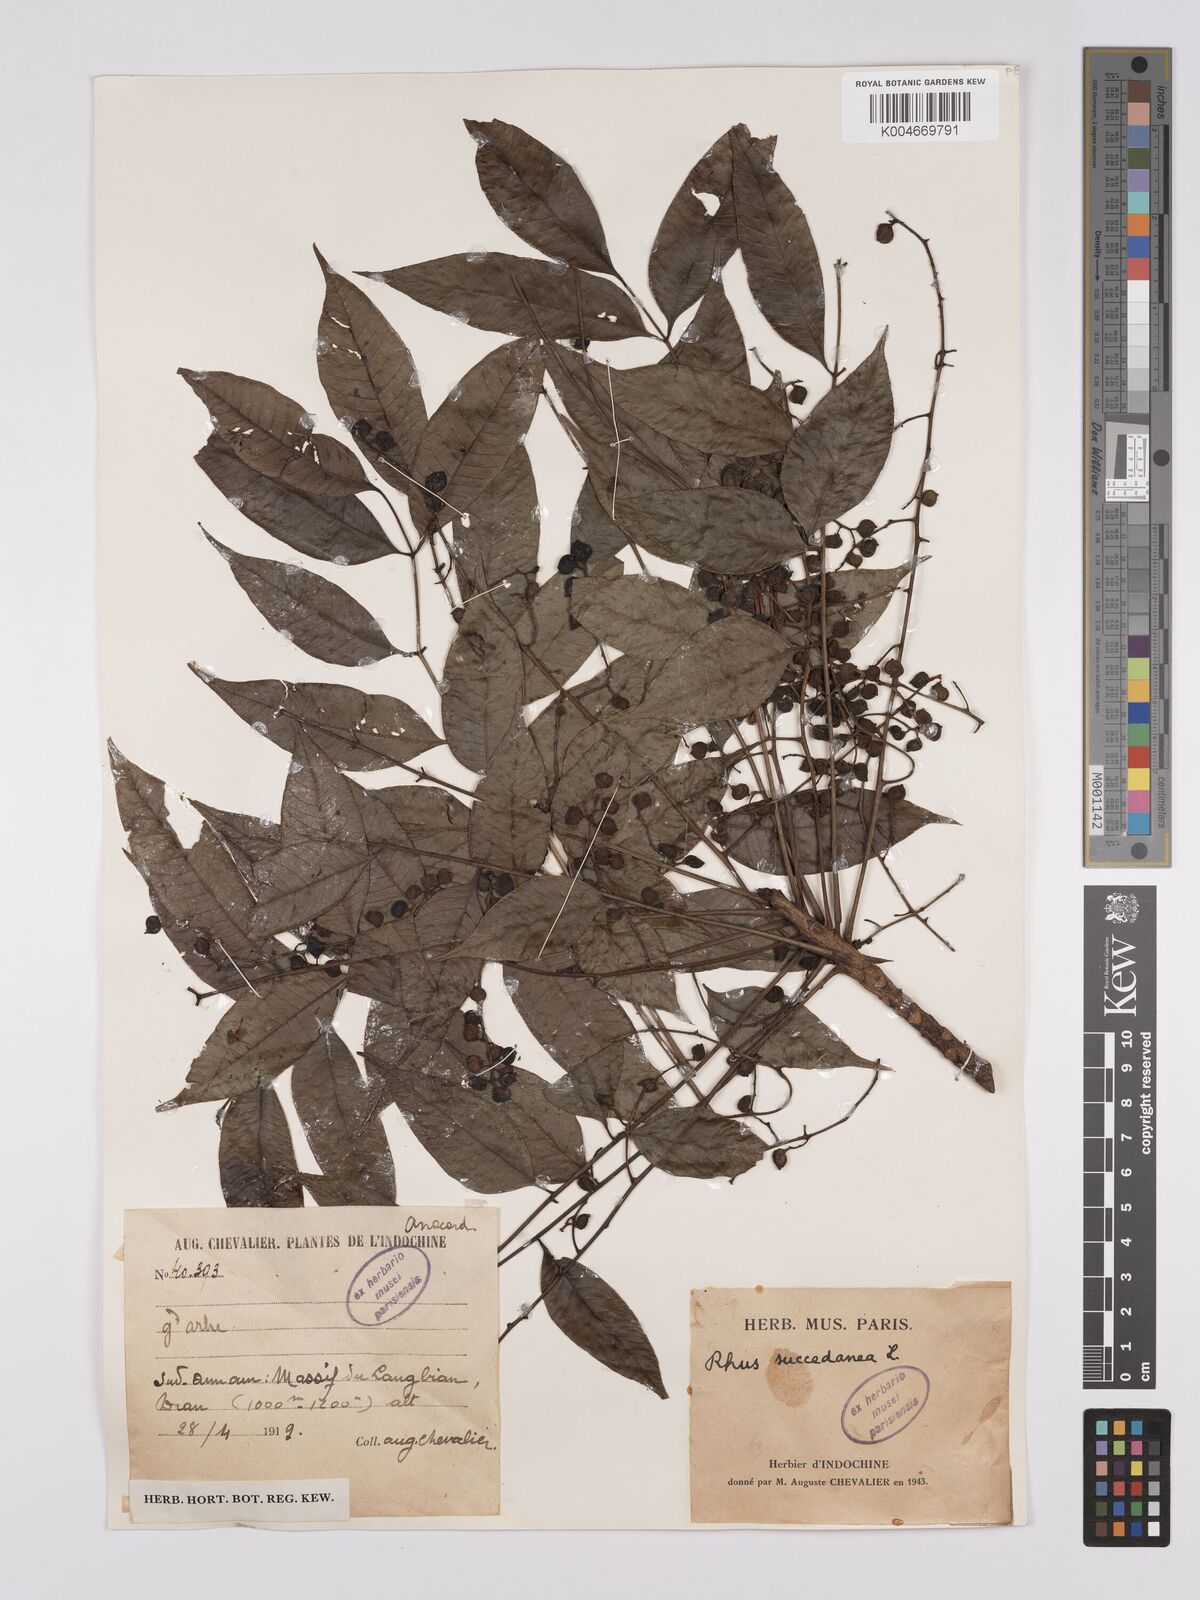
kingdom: Plantae
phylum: Tracheophyta
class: Magnoliopsida
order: Sapindales
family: Anacardiaceae
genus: Toxicodendron
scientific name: Toxicodendron succedaneum
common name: Wax tree
